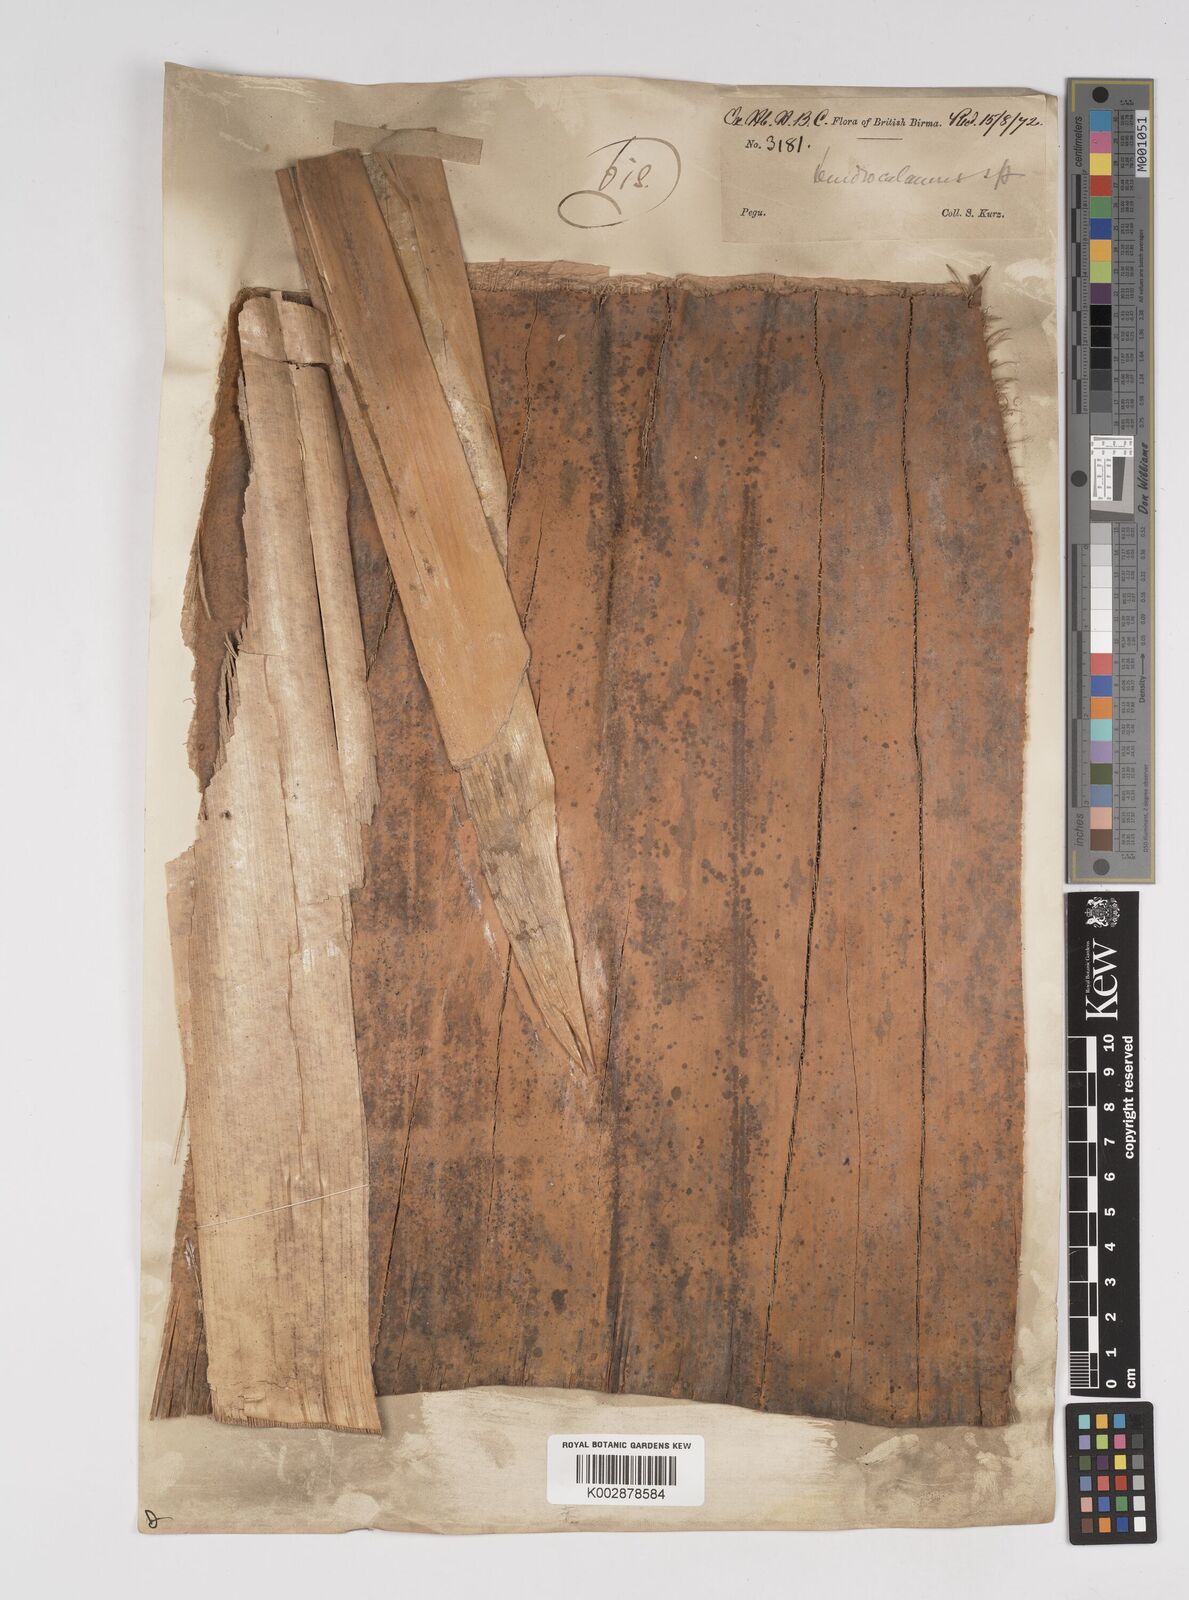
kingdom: Plantae
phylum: Tracheophyta
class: Liliopsida
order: Poales
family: Poaceae
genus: Dendrocalamus
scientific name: Dendrocalamus brandisii
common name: Velvetleaf bamboo
